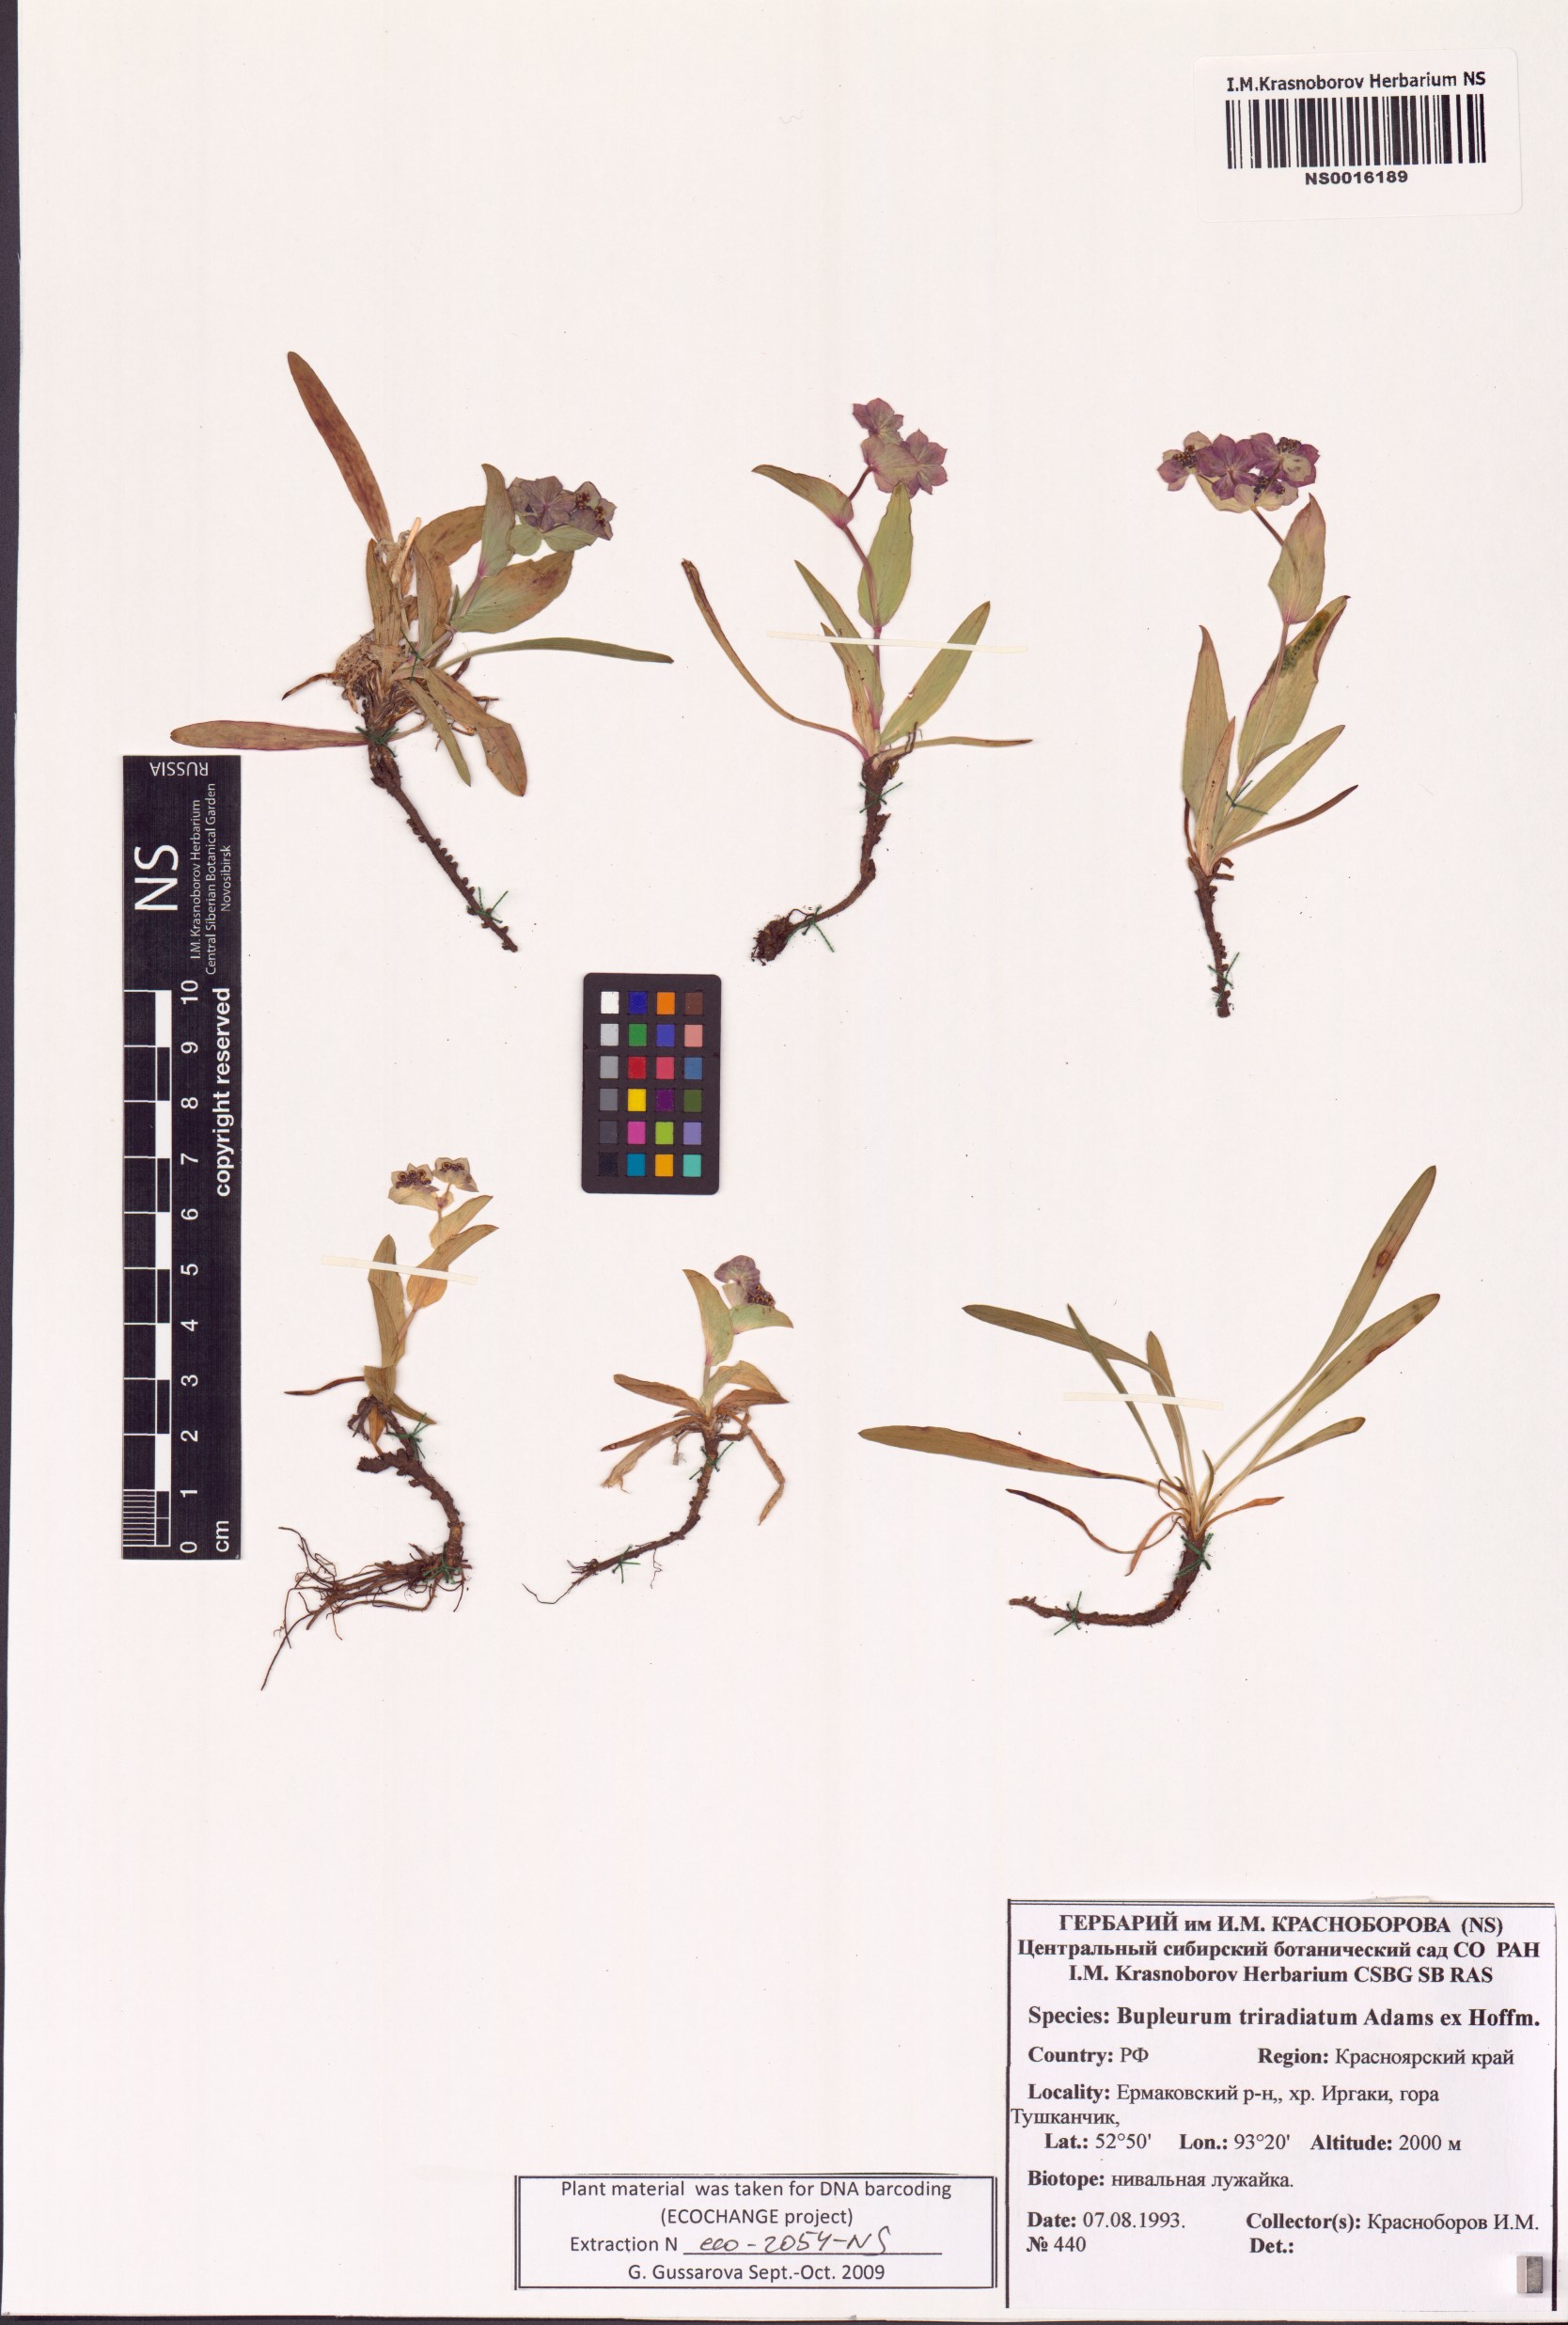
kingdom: Plantae
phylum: Tracheophyta
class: Magnoliopsida
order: Apiales
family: Apiaceae
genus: Bupleurum
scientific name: Bupleurum triradiatum
